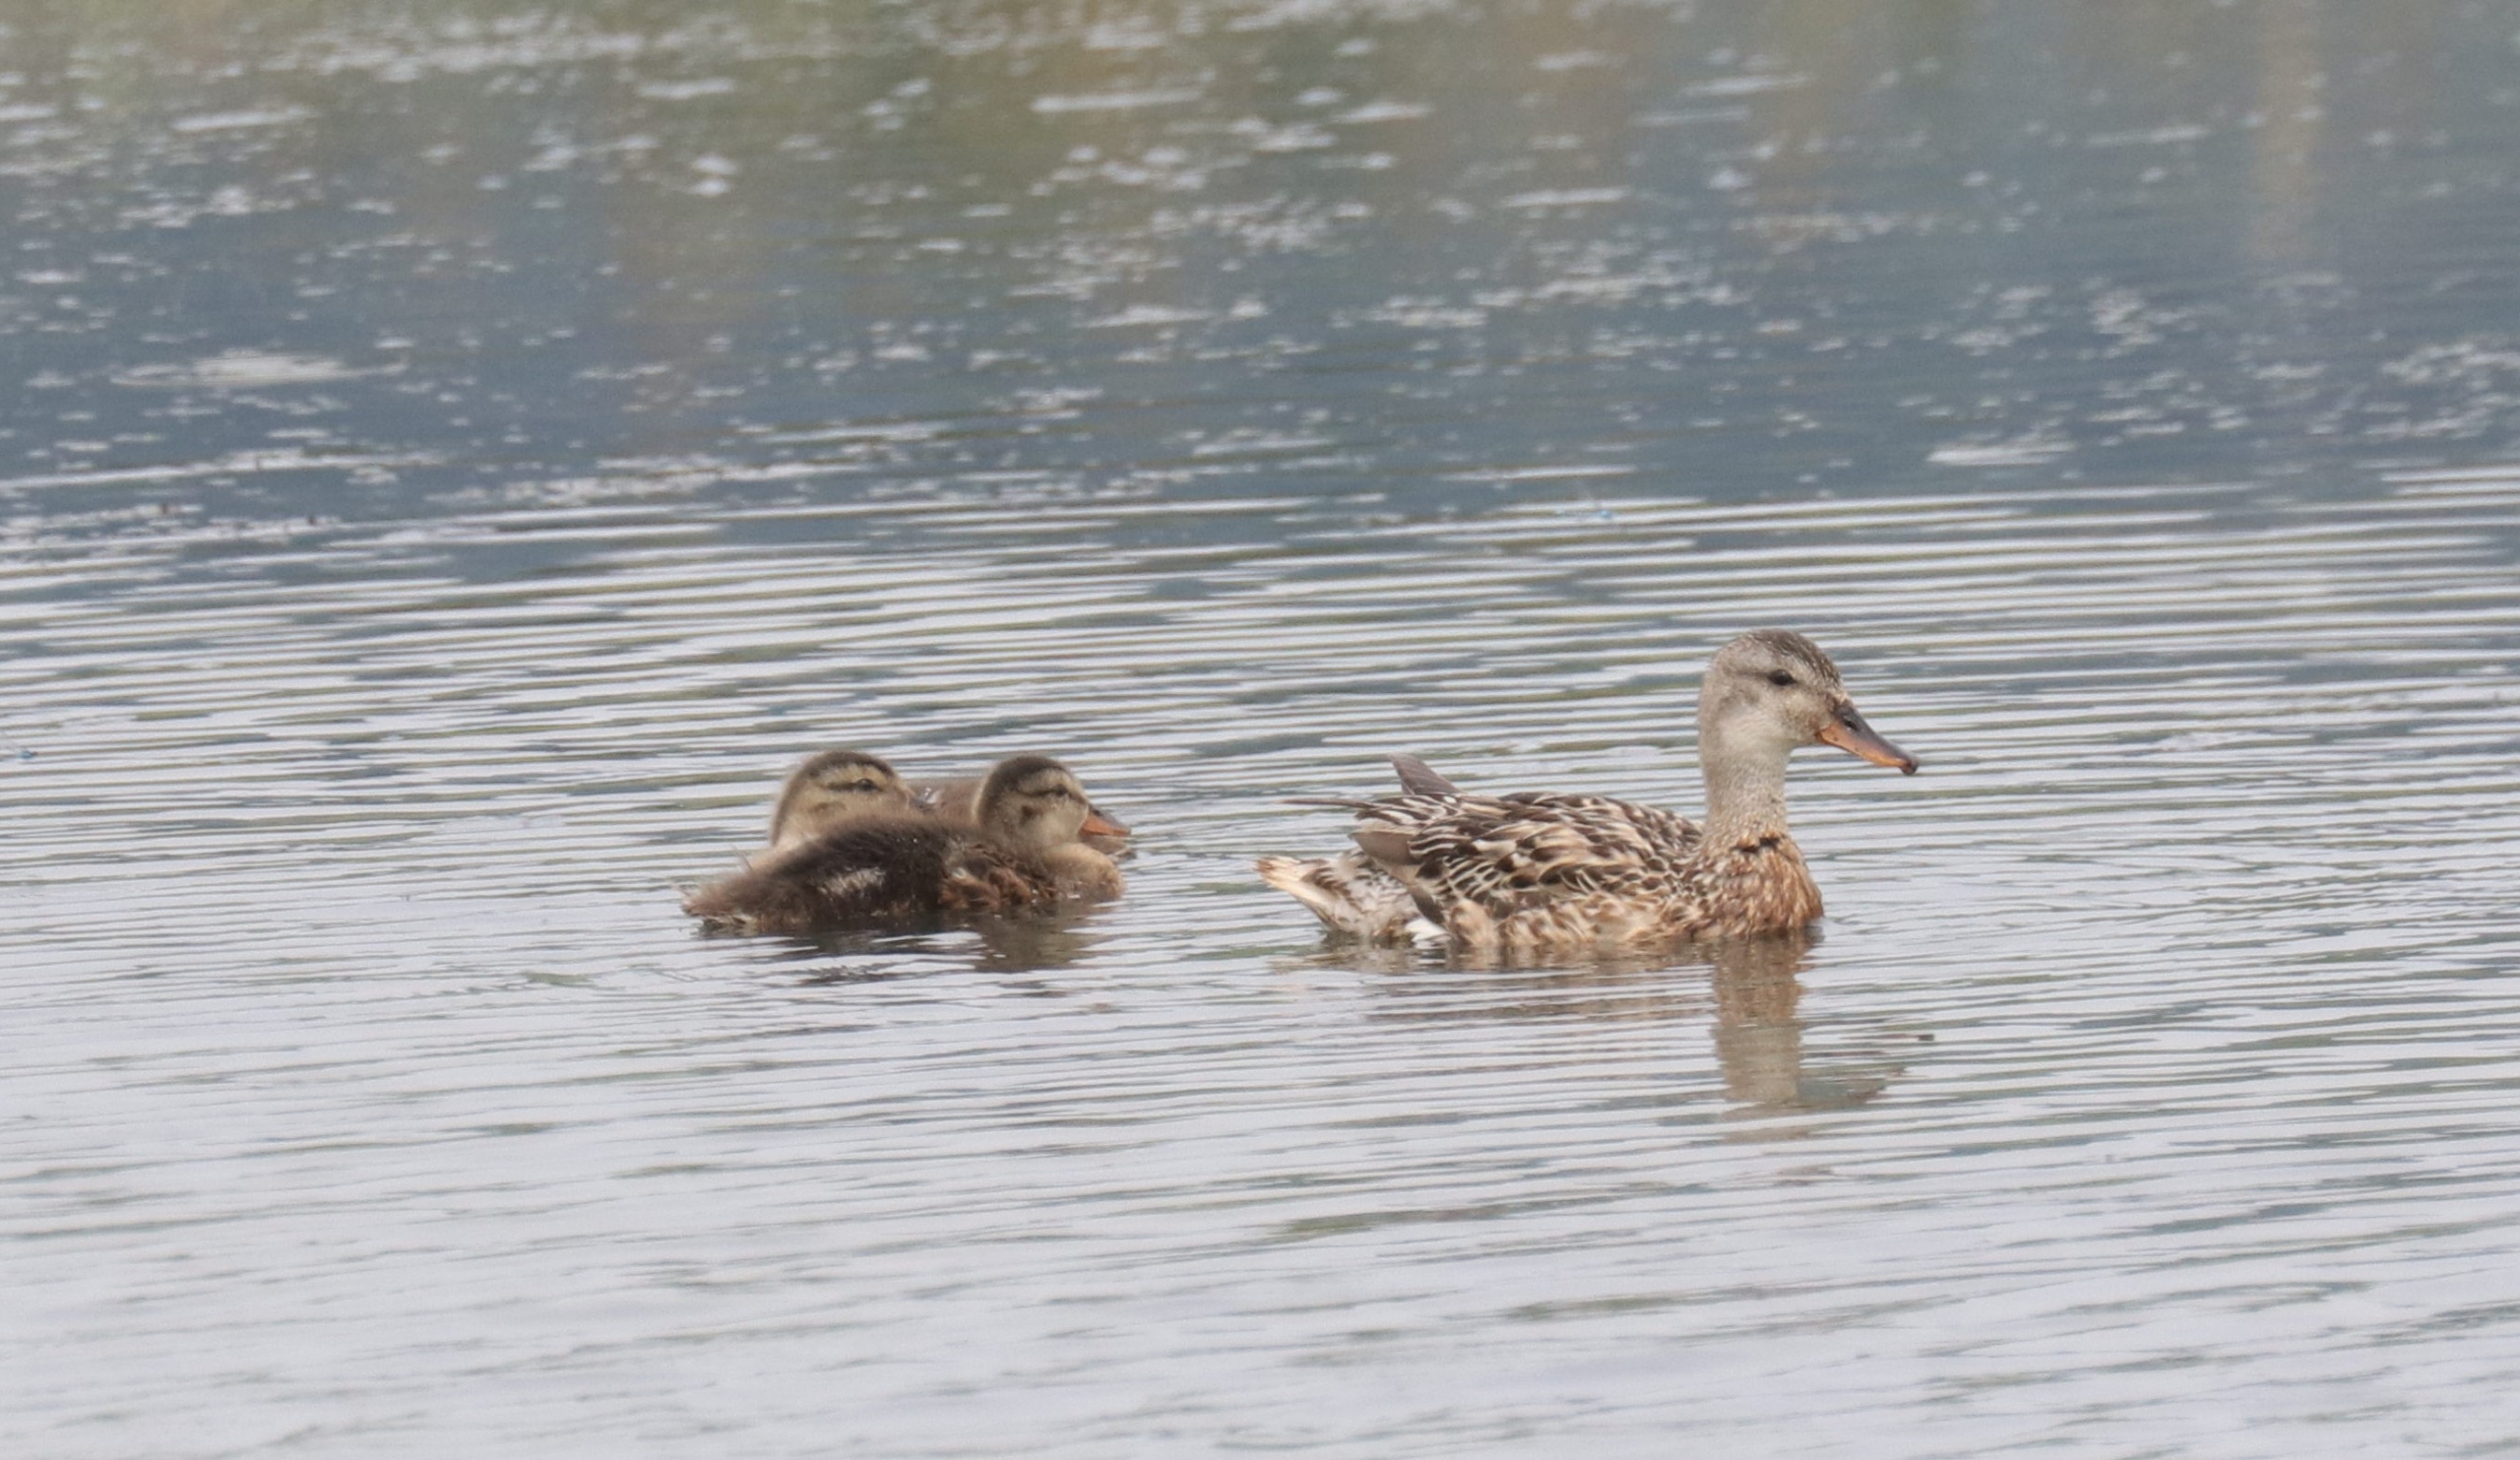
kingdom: Animalia
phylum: Chordata
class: Aves
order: Anseriformes
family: Anatidae
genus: Mareca
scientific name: Mareca strepera
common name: Knarand
